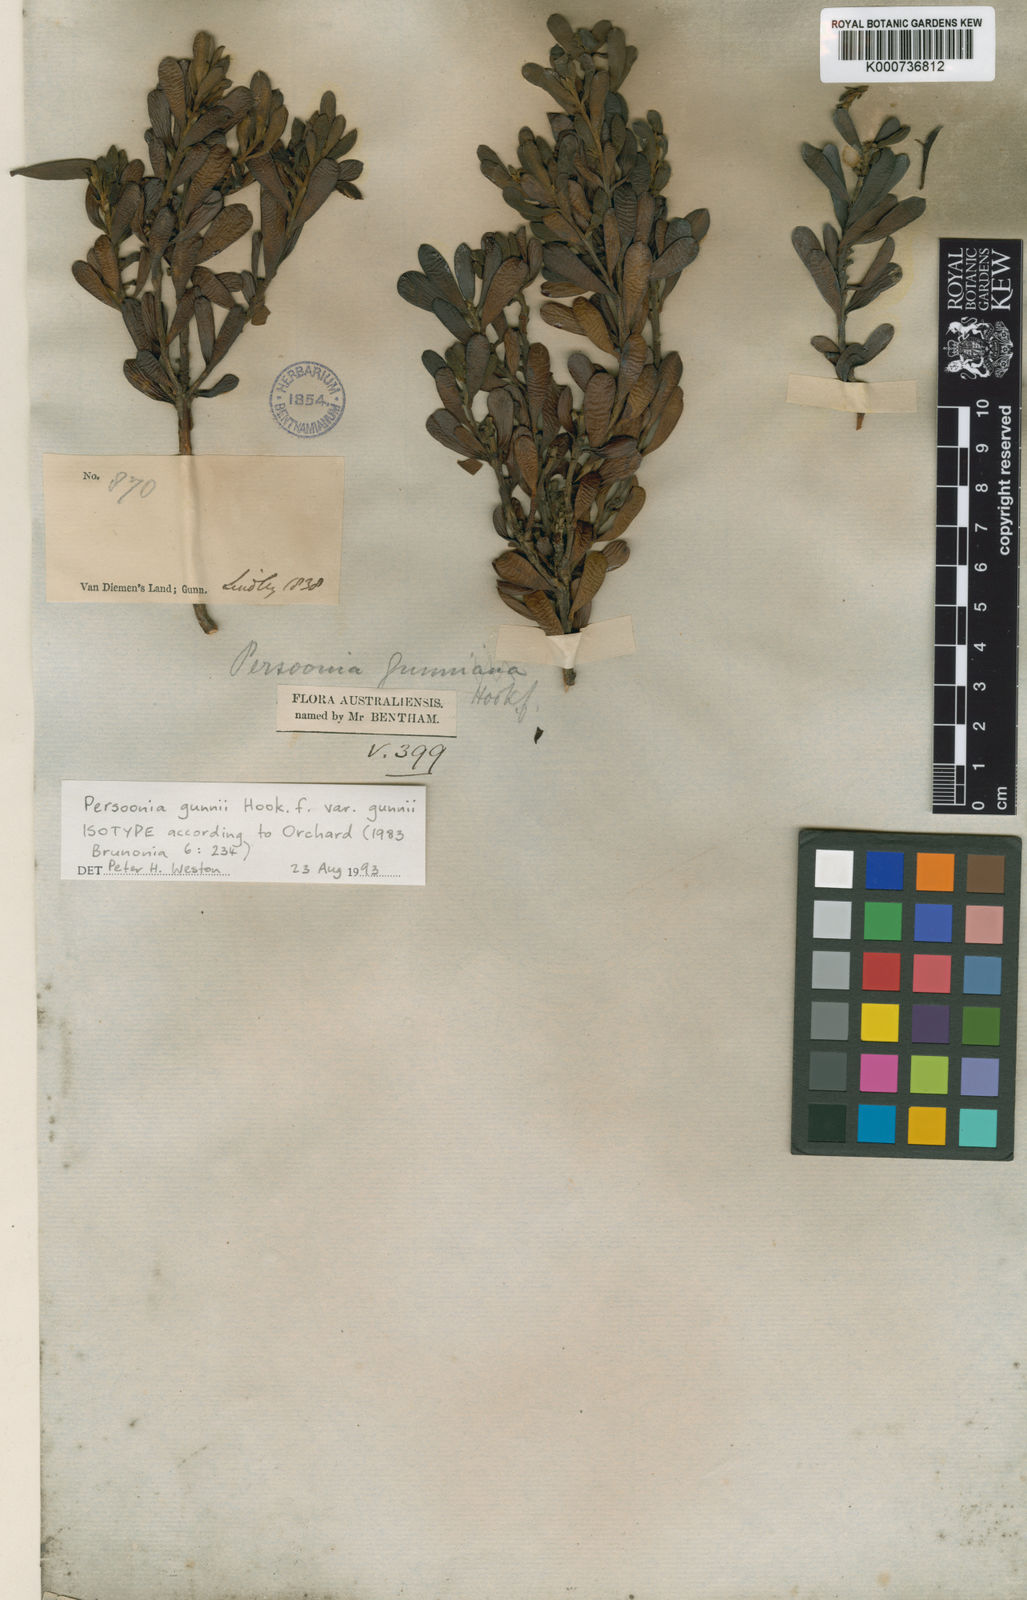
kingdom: Plantae
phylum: Tracheophyta
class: Magnoliopsida
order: Proteales
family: Proteaceae
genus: Persoonia
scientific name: Persoonia gunnii
